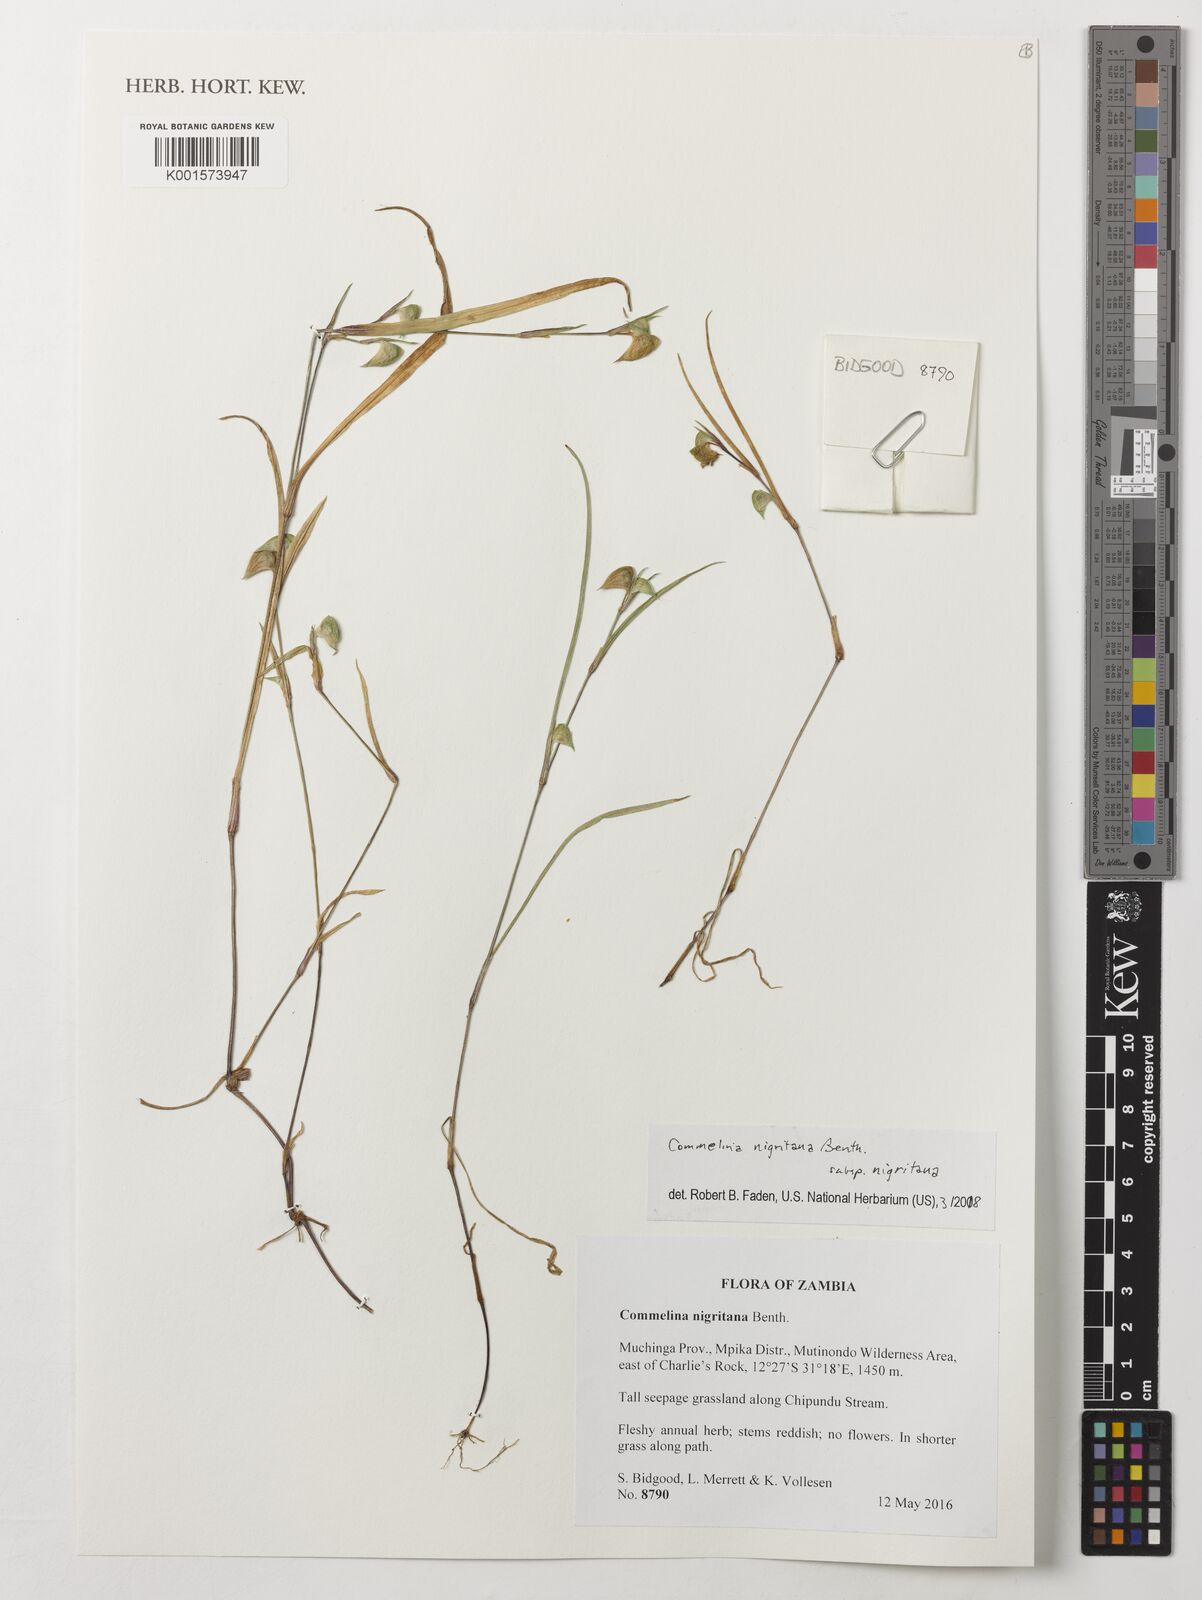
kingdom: Plantae
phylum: Tracheophyta
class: Liliopsida
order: Commelinales
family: Commelinaceae
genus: Commelina
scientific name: Commelina nigritana
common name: African dayflower
